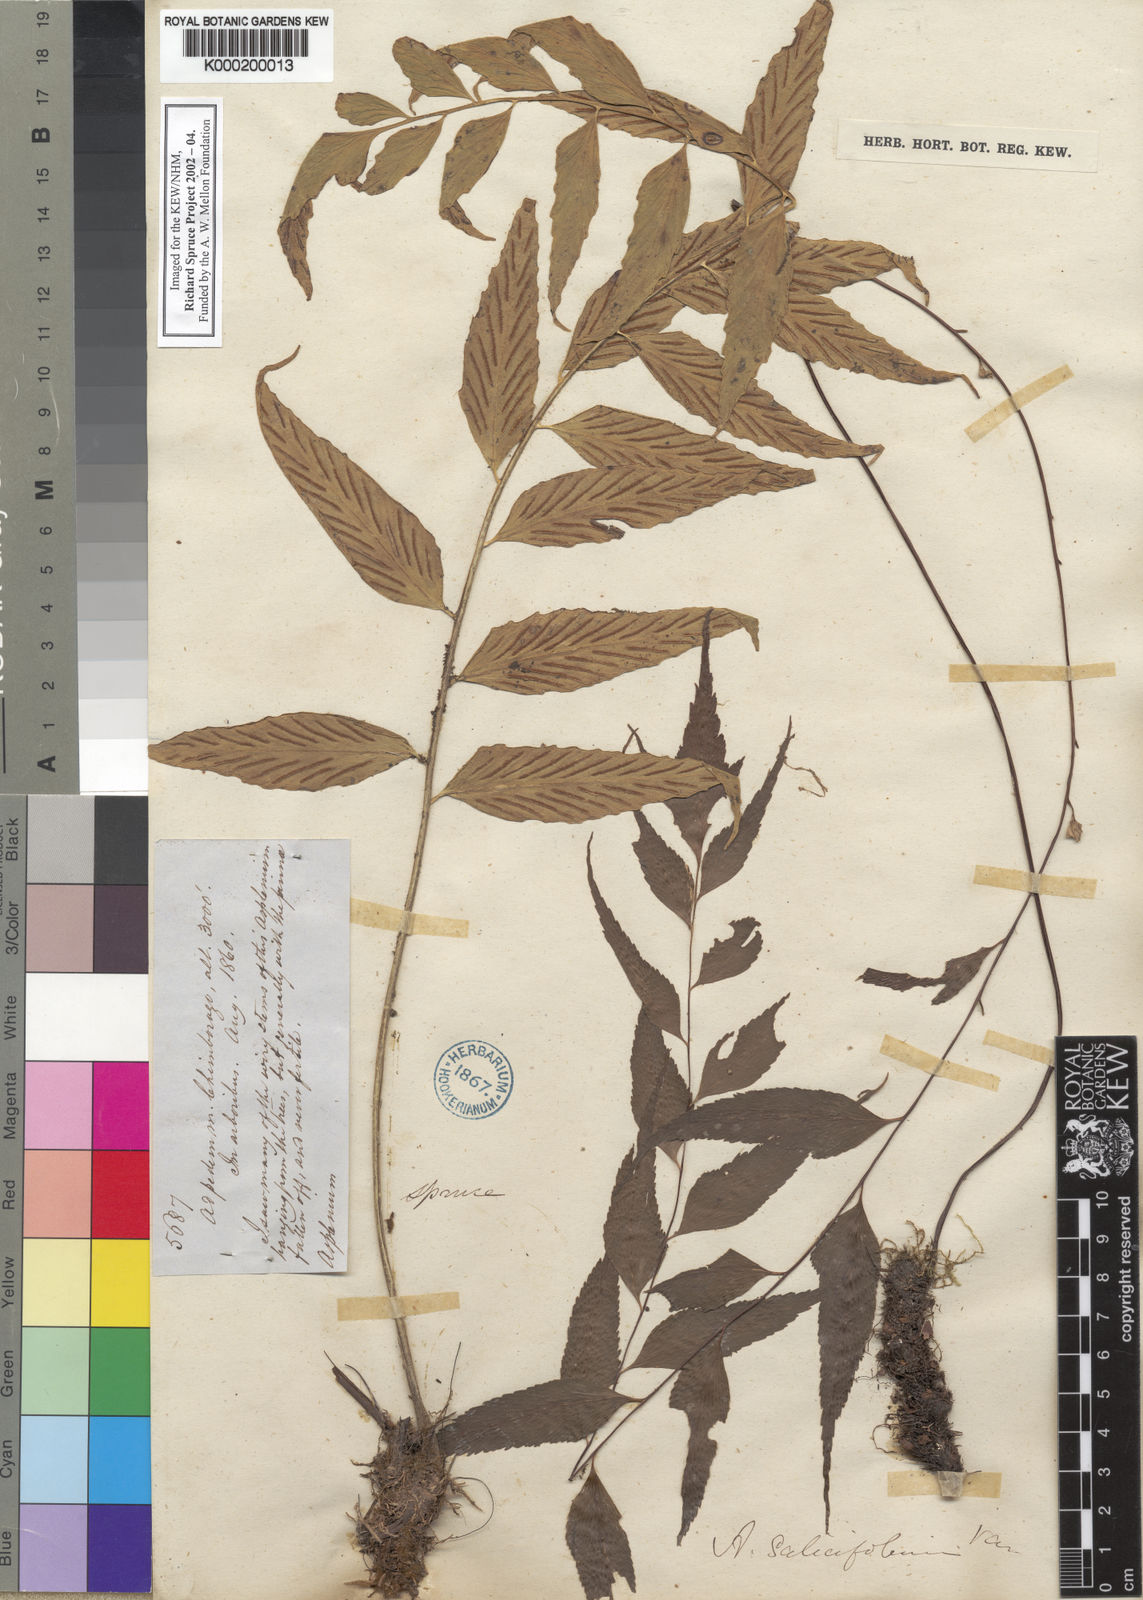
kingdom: Plantae
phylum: Tracheophyta
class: Polypodiopsida
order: Polypodiales
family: Aspleniaceae
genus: Asplenium
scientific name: Asplenium virens
